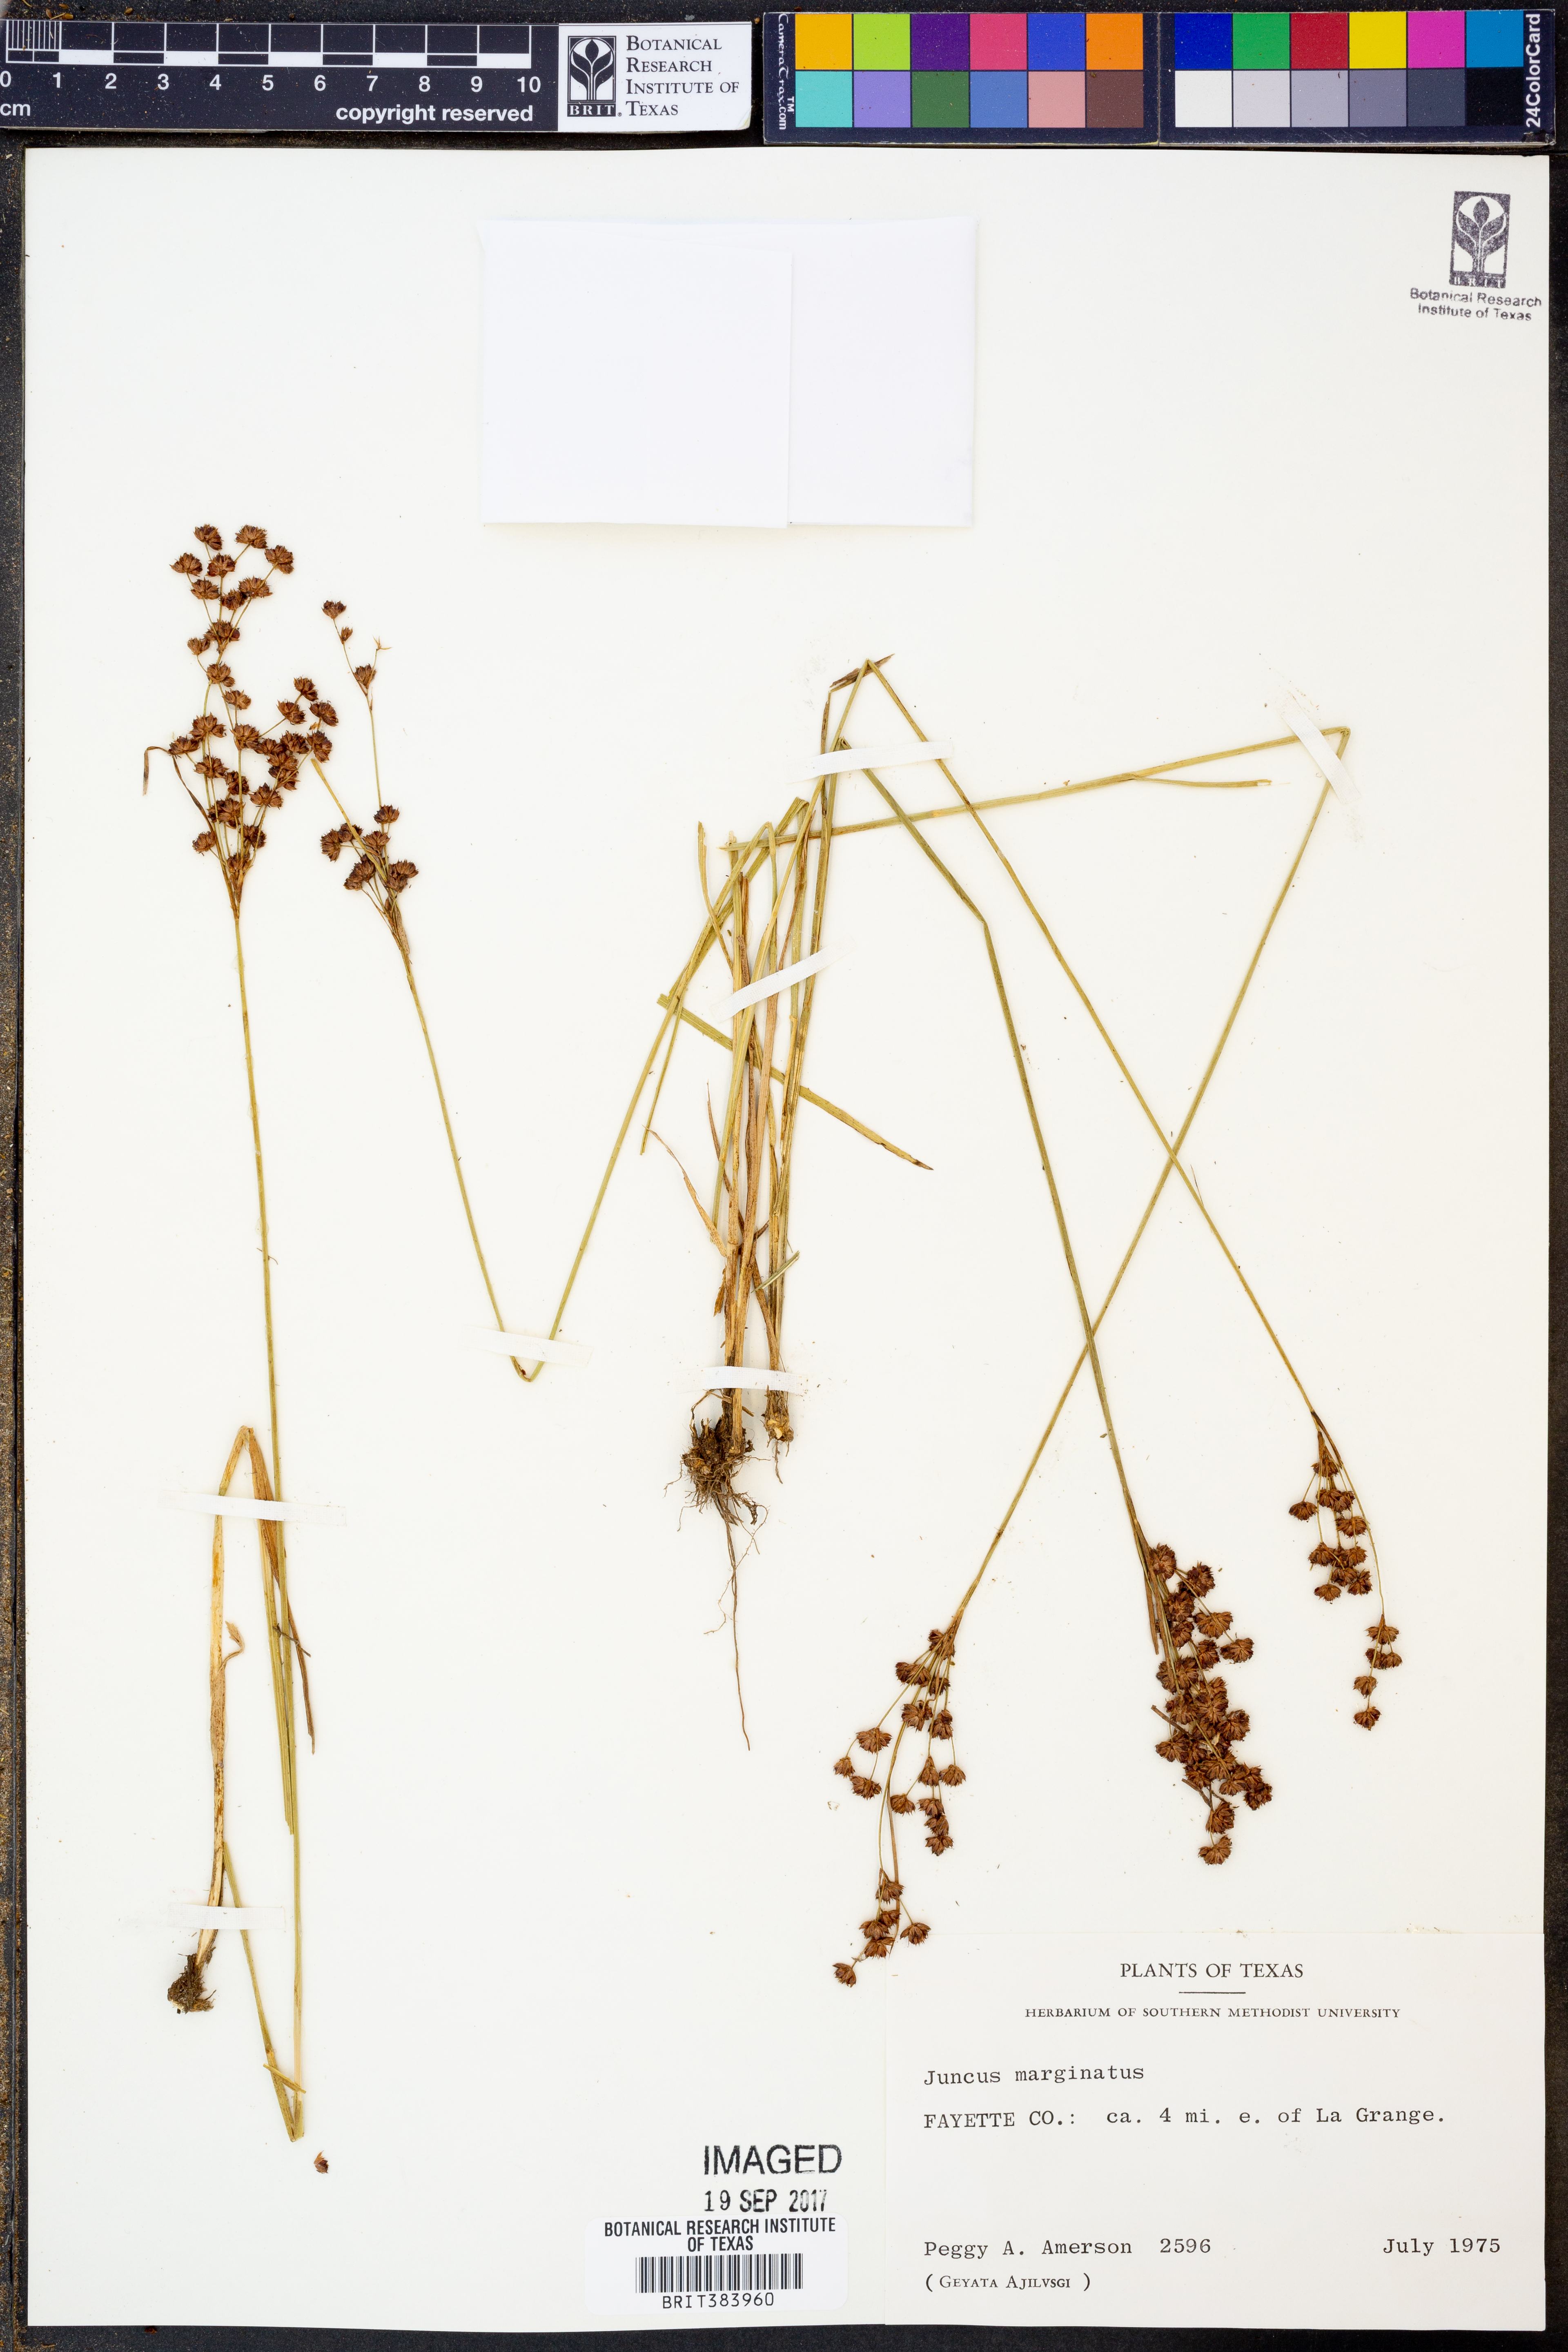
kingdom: Plantae
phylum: Tracheophyta
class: Liliopsida
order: Poales
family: Juncaceae
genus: Juncus
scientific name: Juncus marginatus
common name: Grass-leaf rush
